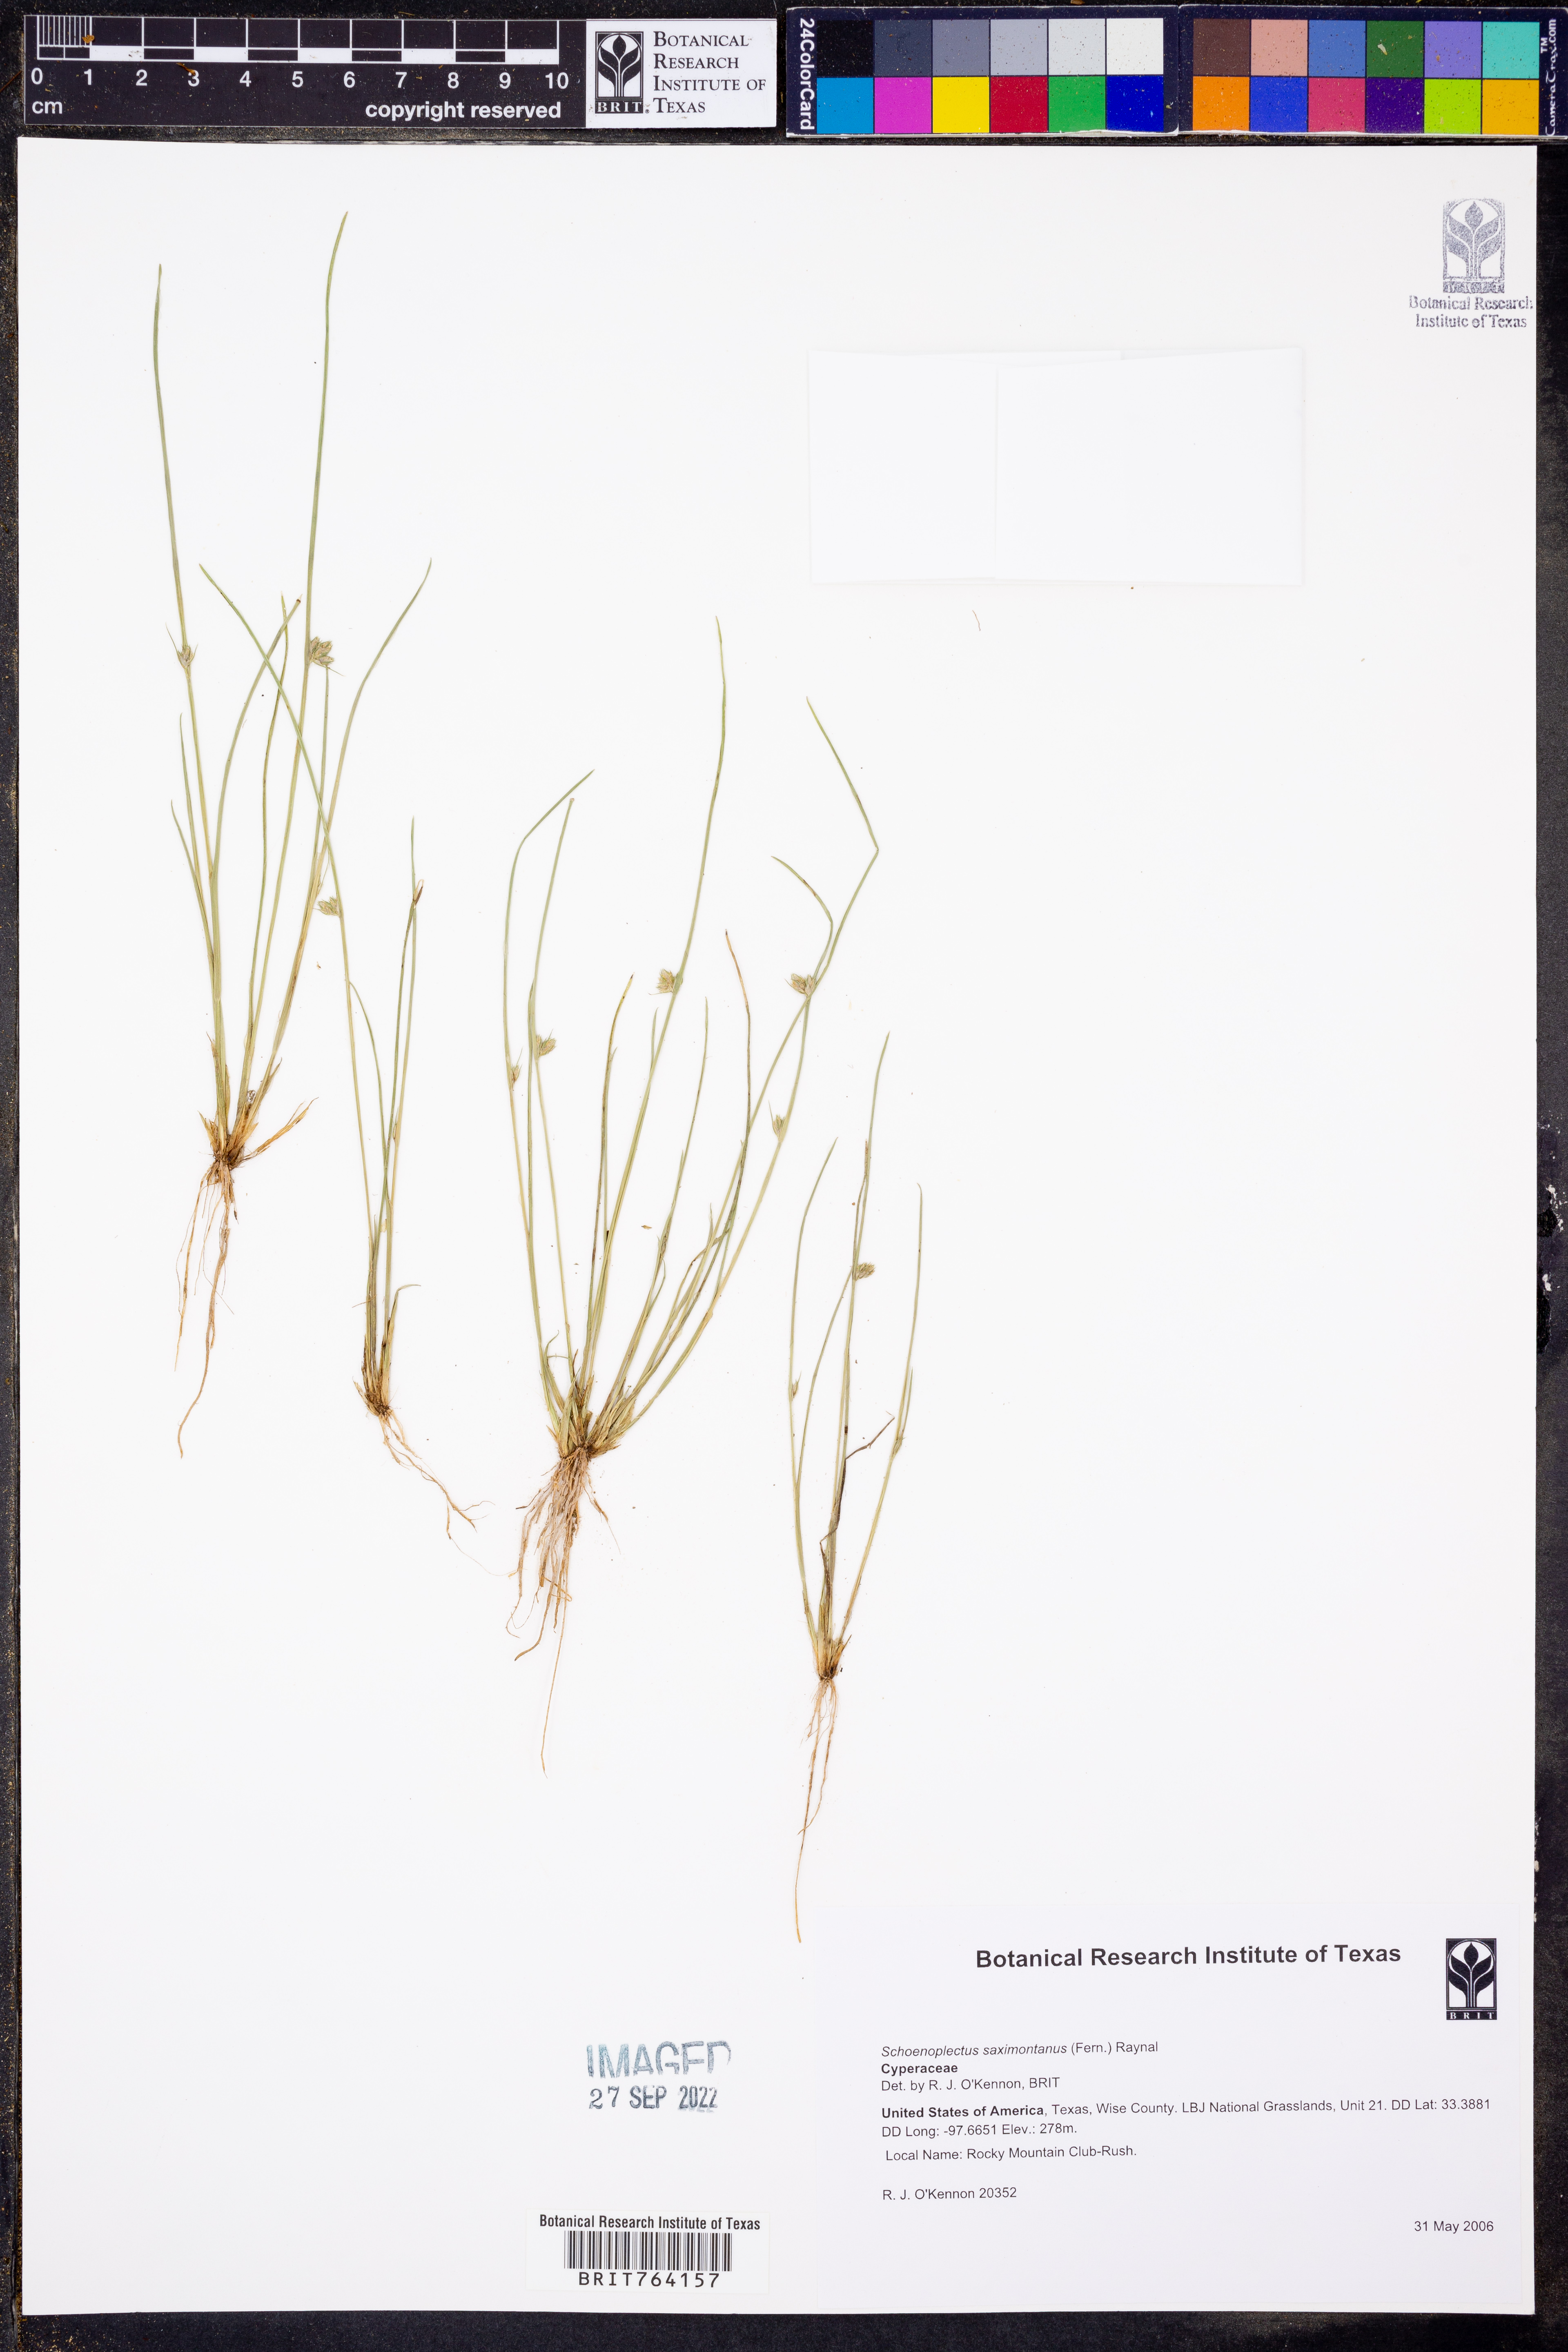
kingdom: Plantae
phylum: Tracheophyta
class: Liliopsida
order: Poales
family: Cyperaceae
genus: Schoenoplectiella
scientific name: Schoenoplectiella saximontana
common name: Rocky mountain clubrush
